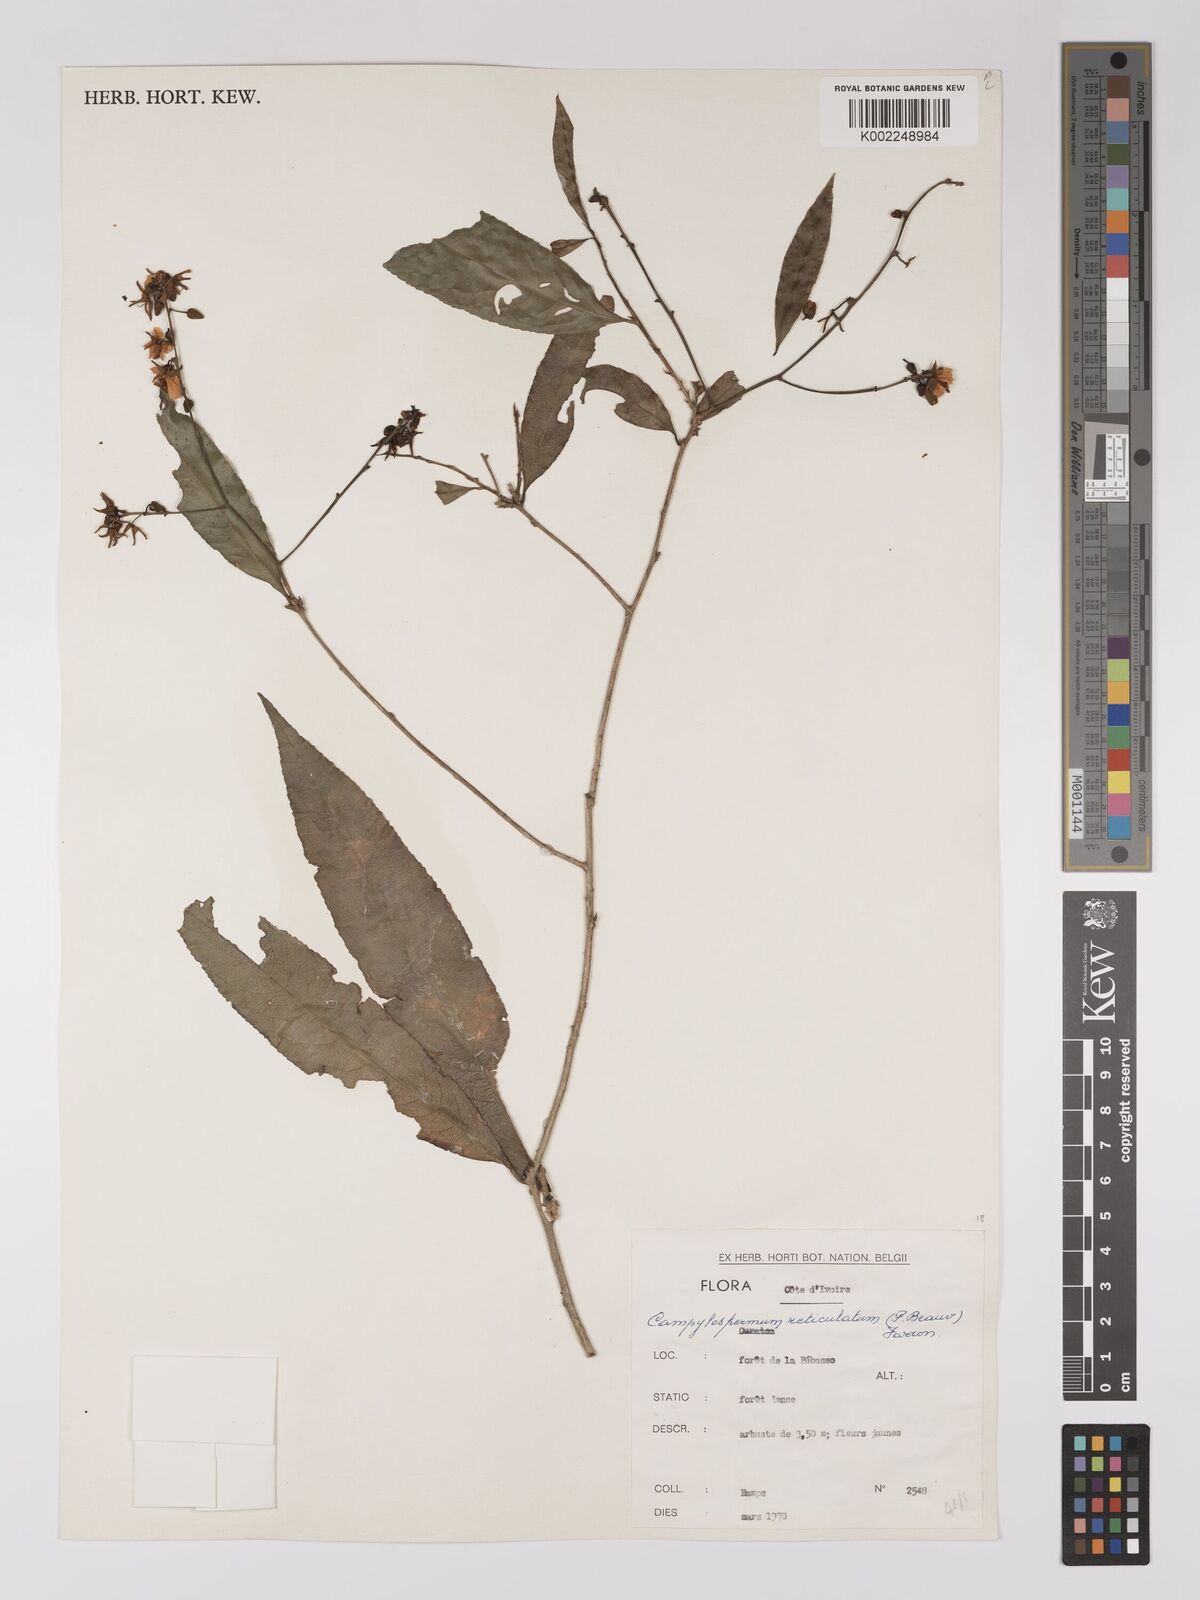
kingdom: Plantae
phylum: Tracheophyta
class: Magnoliopsida
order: Malpighiales
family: Ochnaceae
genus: Campylospermum
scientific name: Campylospermum reticulatum
